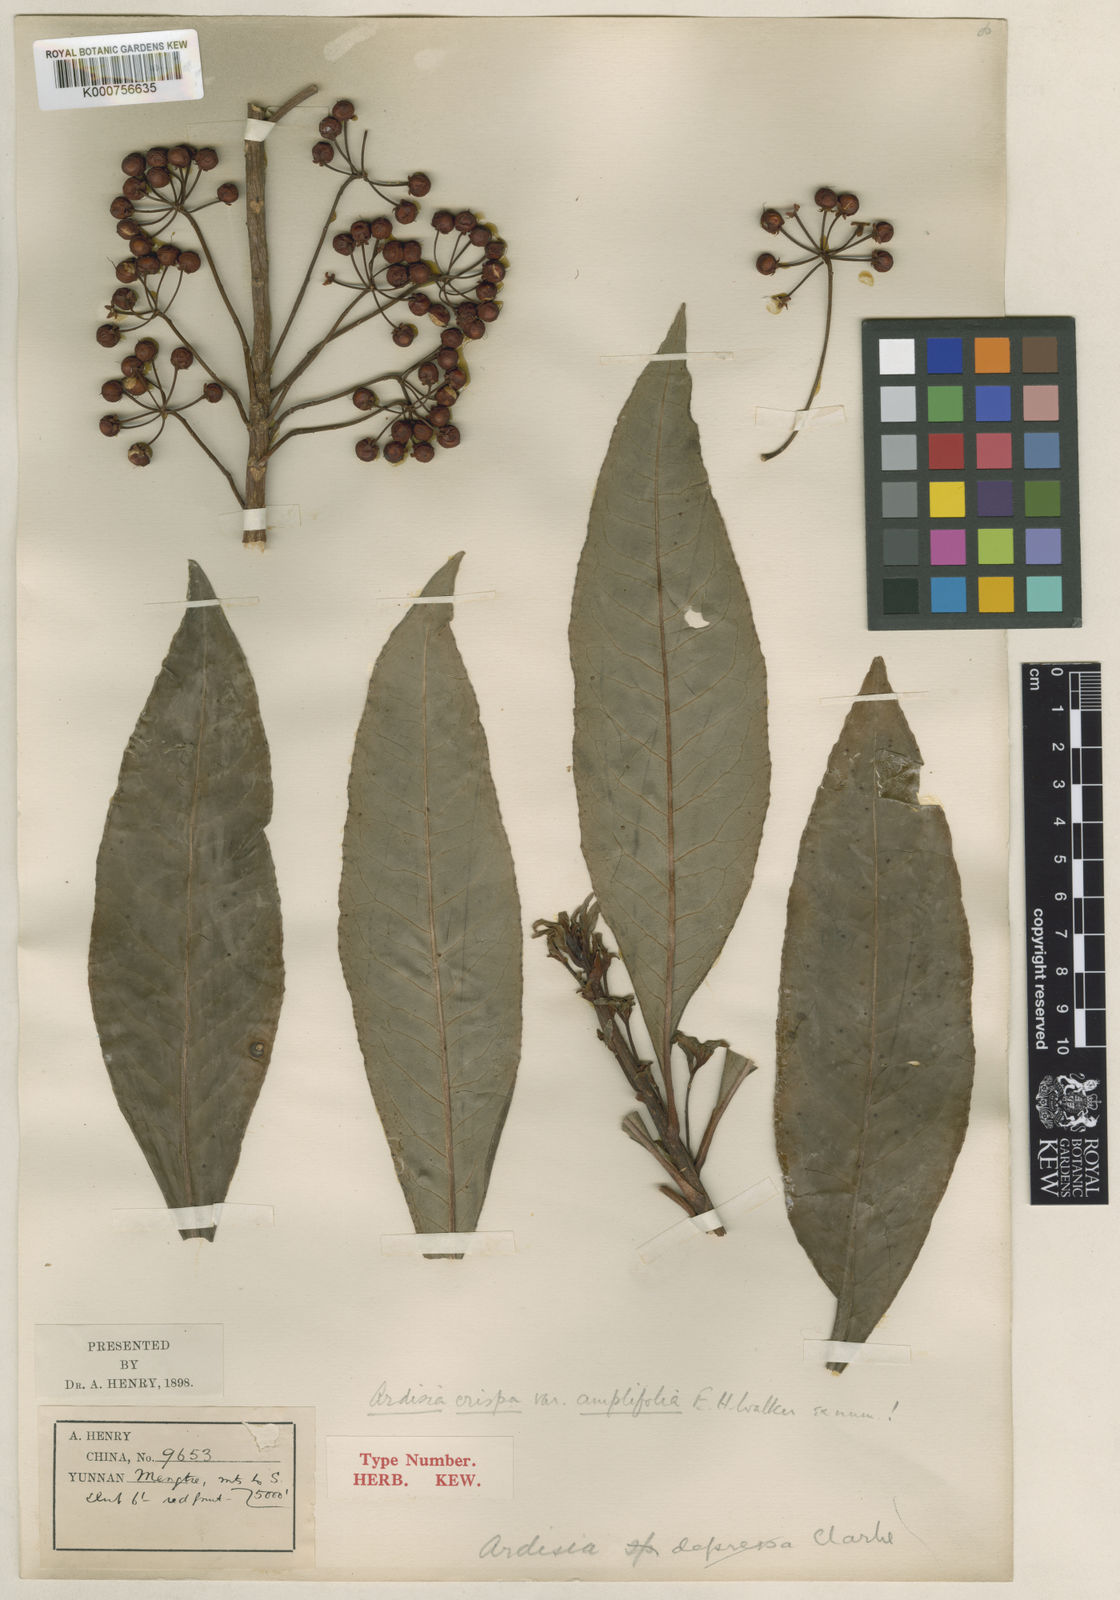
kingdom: Plantae
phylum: Tracheophyta
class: Magnoliopsida
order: Ericales
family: Primulaceae
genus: Ardisia
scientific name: Ardisia crispa
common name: Japanese-holly
